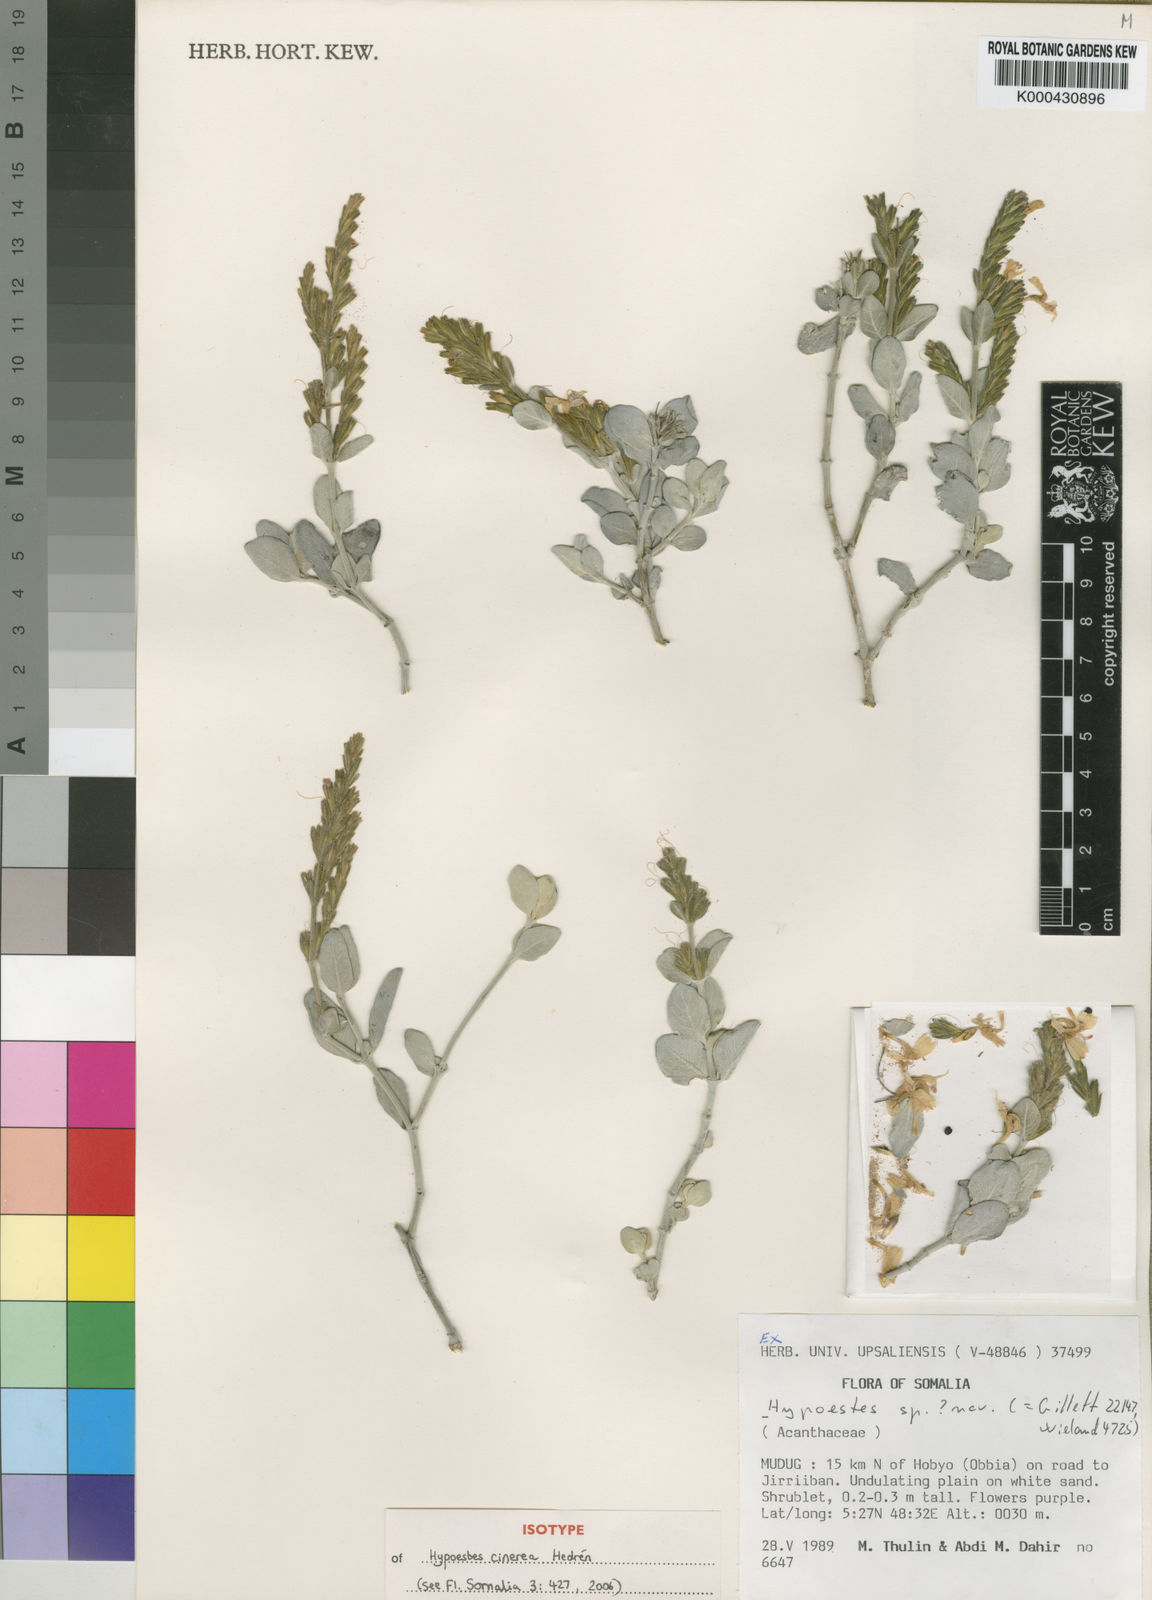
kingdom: Plantae
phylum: Tracheophyta
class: Magnoliopsida
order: Lamiales
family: Acanthaceae
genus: Hypoestes
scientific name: Hypoestes
